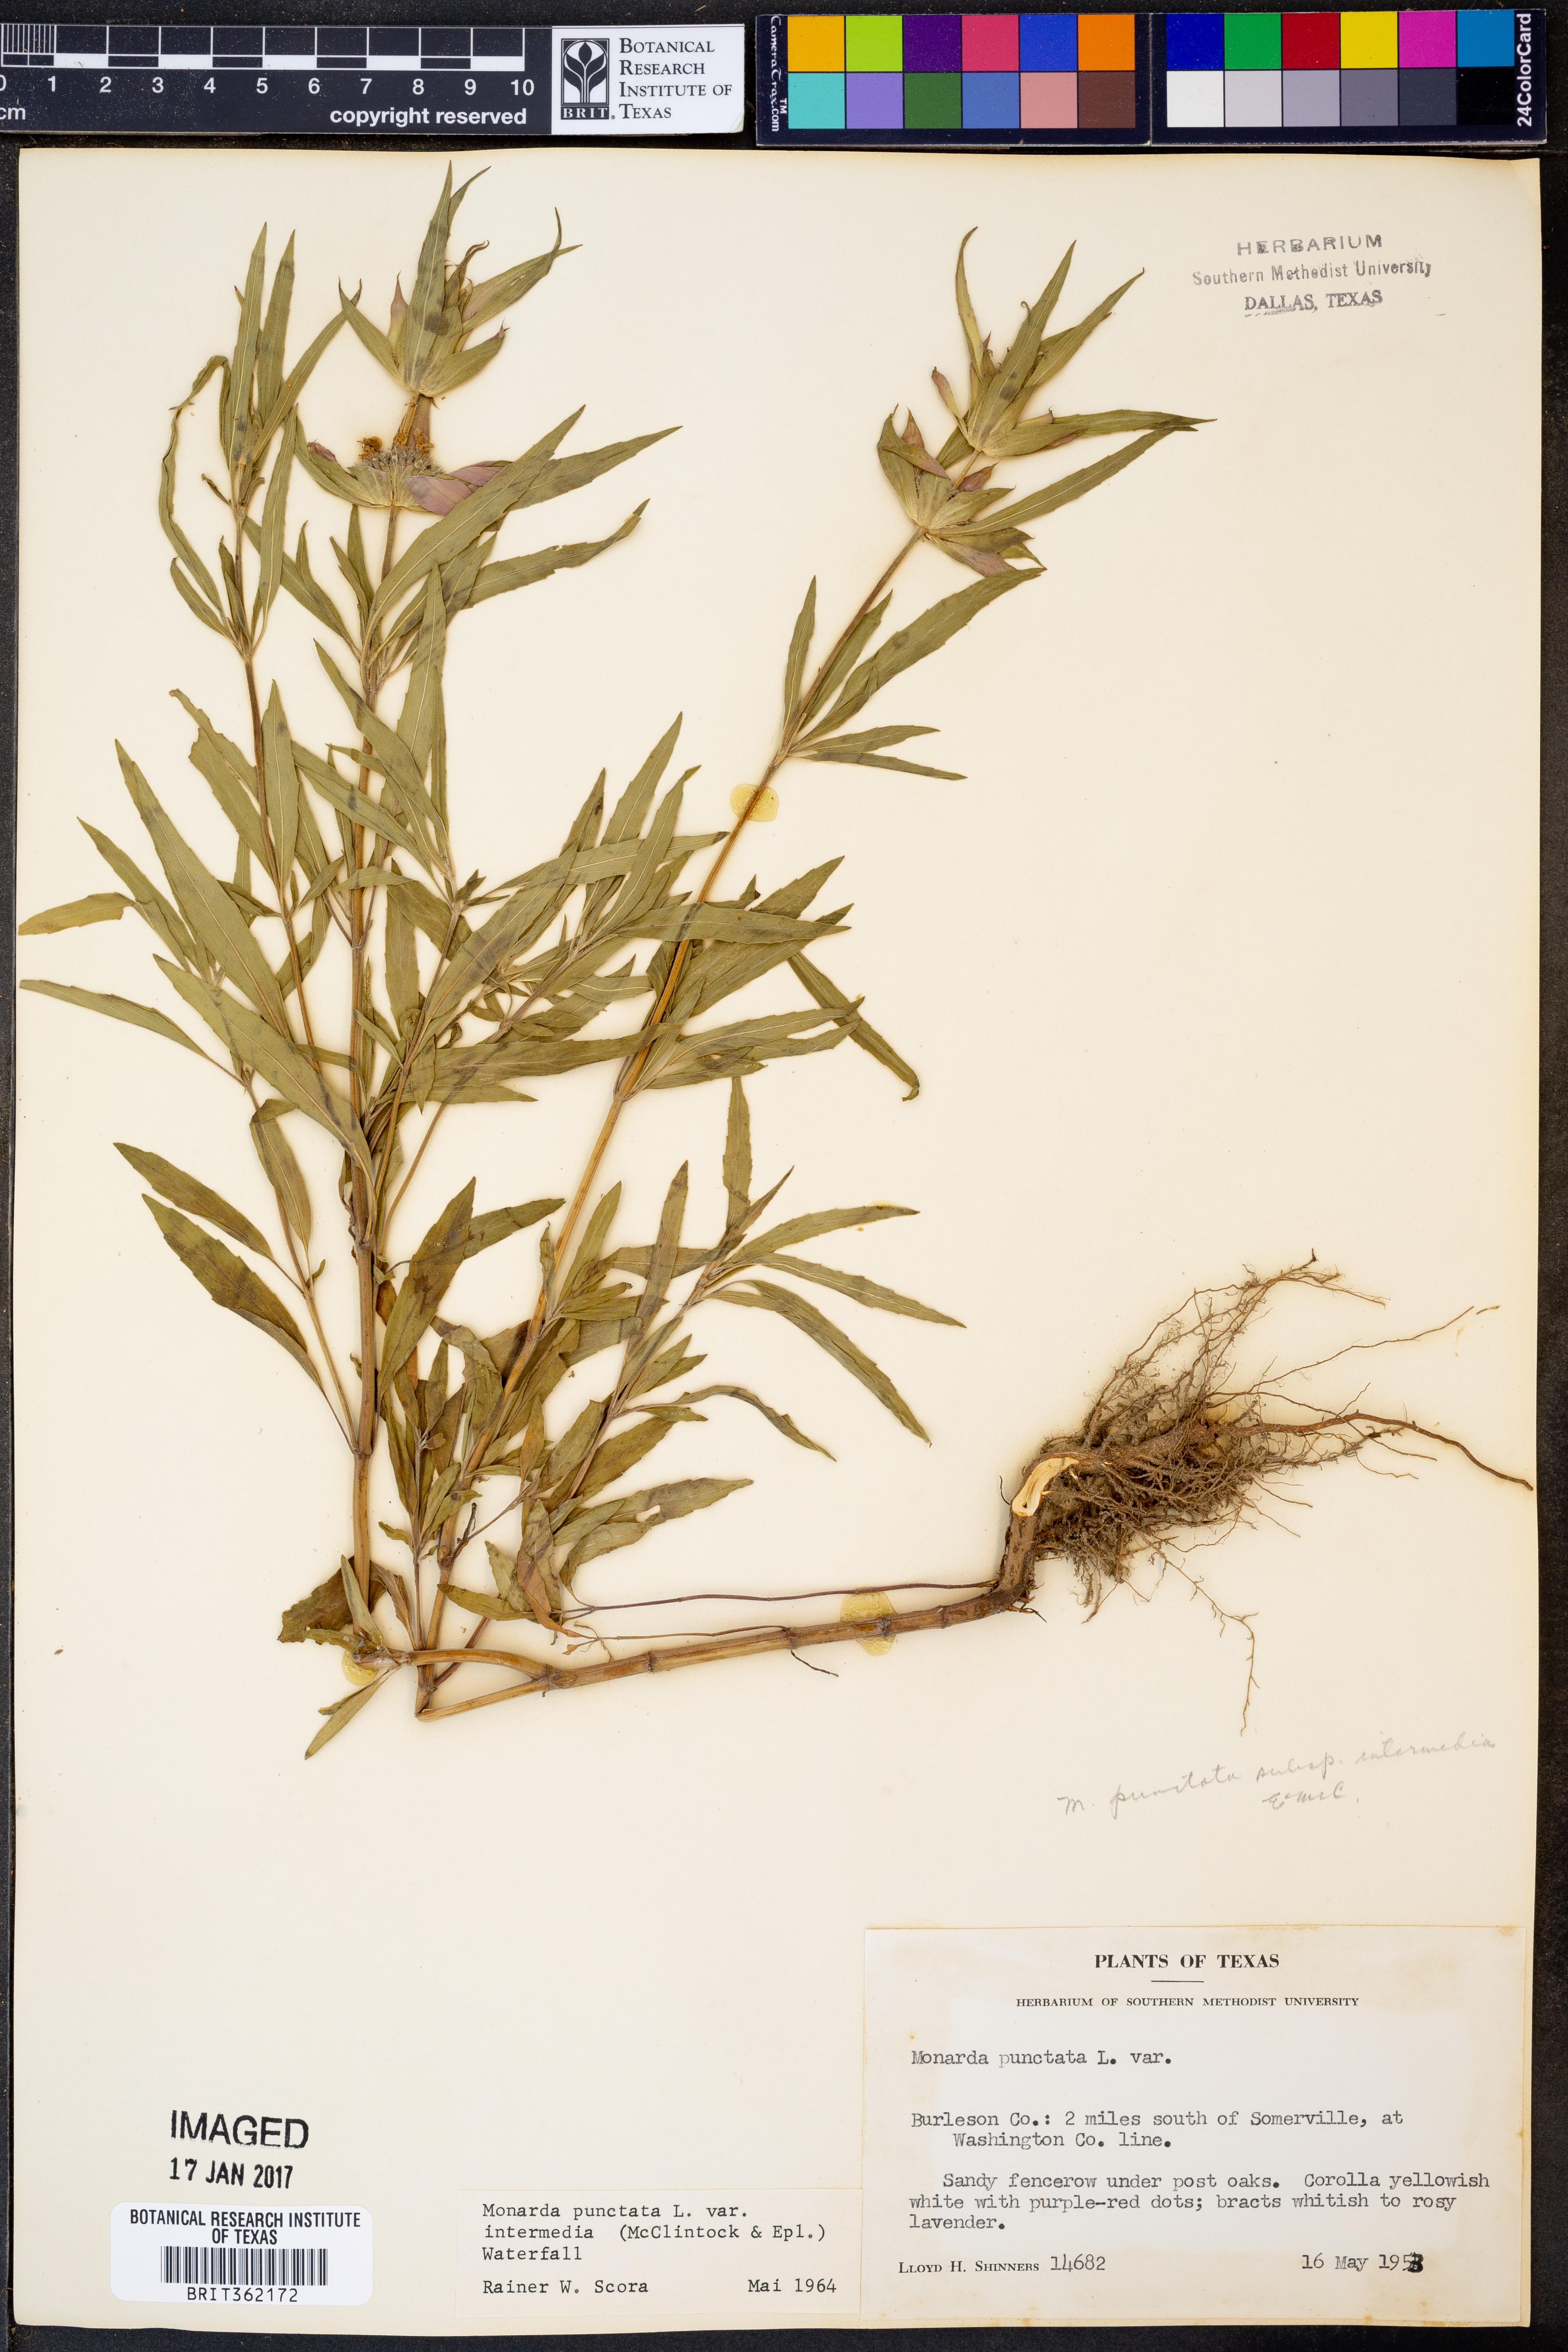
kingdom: Plantae
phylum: Tracheophyta
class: Magnoliopsida
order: Lamiales
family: Lamiaceae
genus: Monarda
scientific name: Monarda punctata
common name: Dotted monarda
